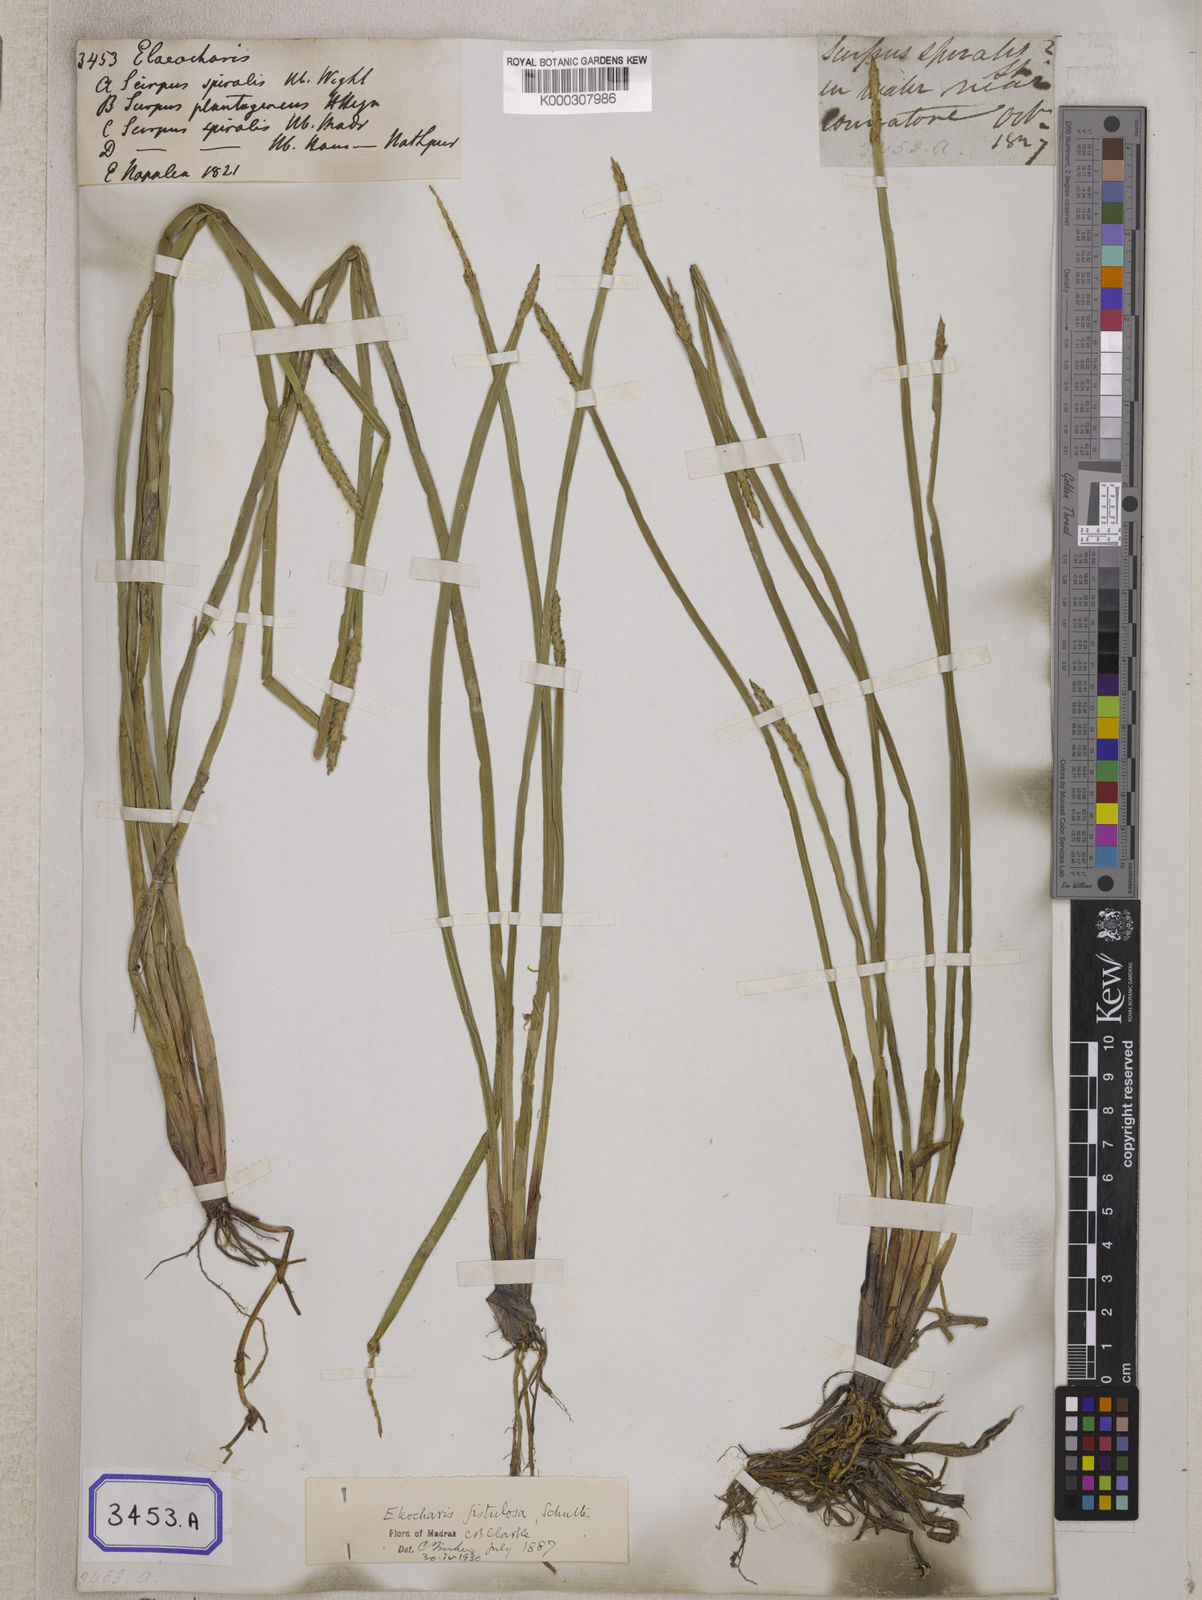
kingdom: Plantae
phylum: Tracheophyta
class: Liliopsida
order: Poales
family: Cyperaceae
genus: Eleocharis
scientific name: Eleocharis acutangula
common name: Acute spikerush
